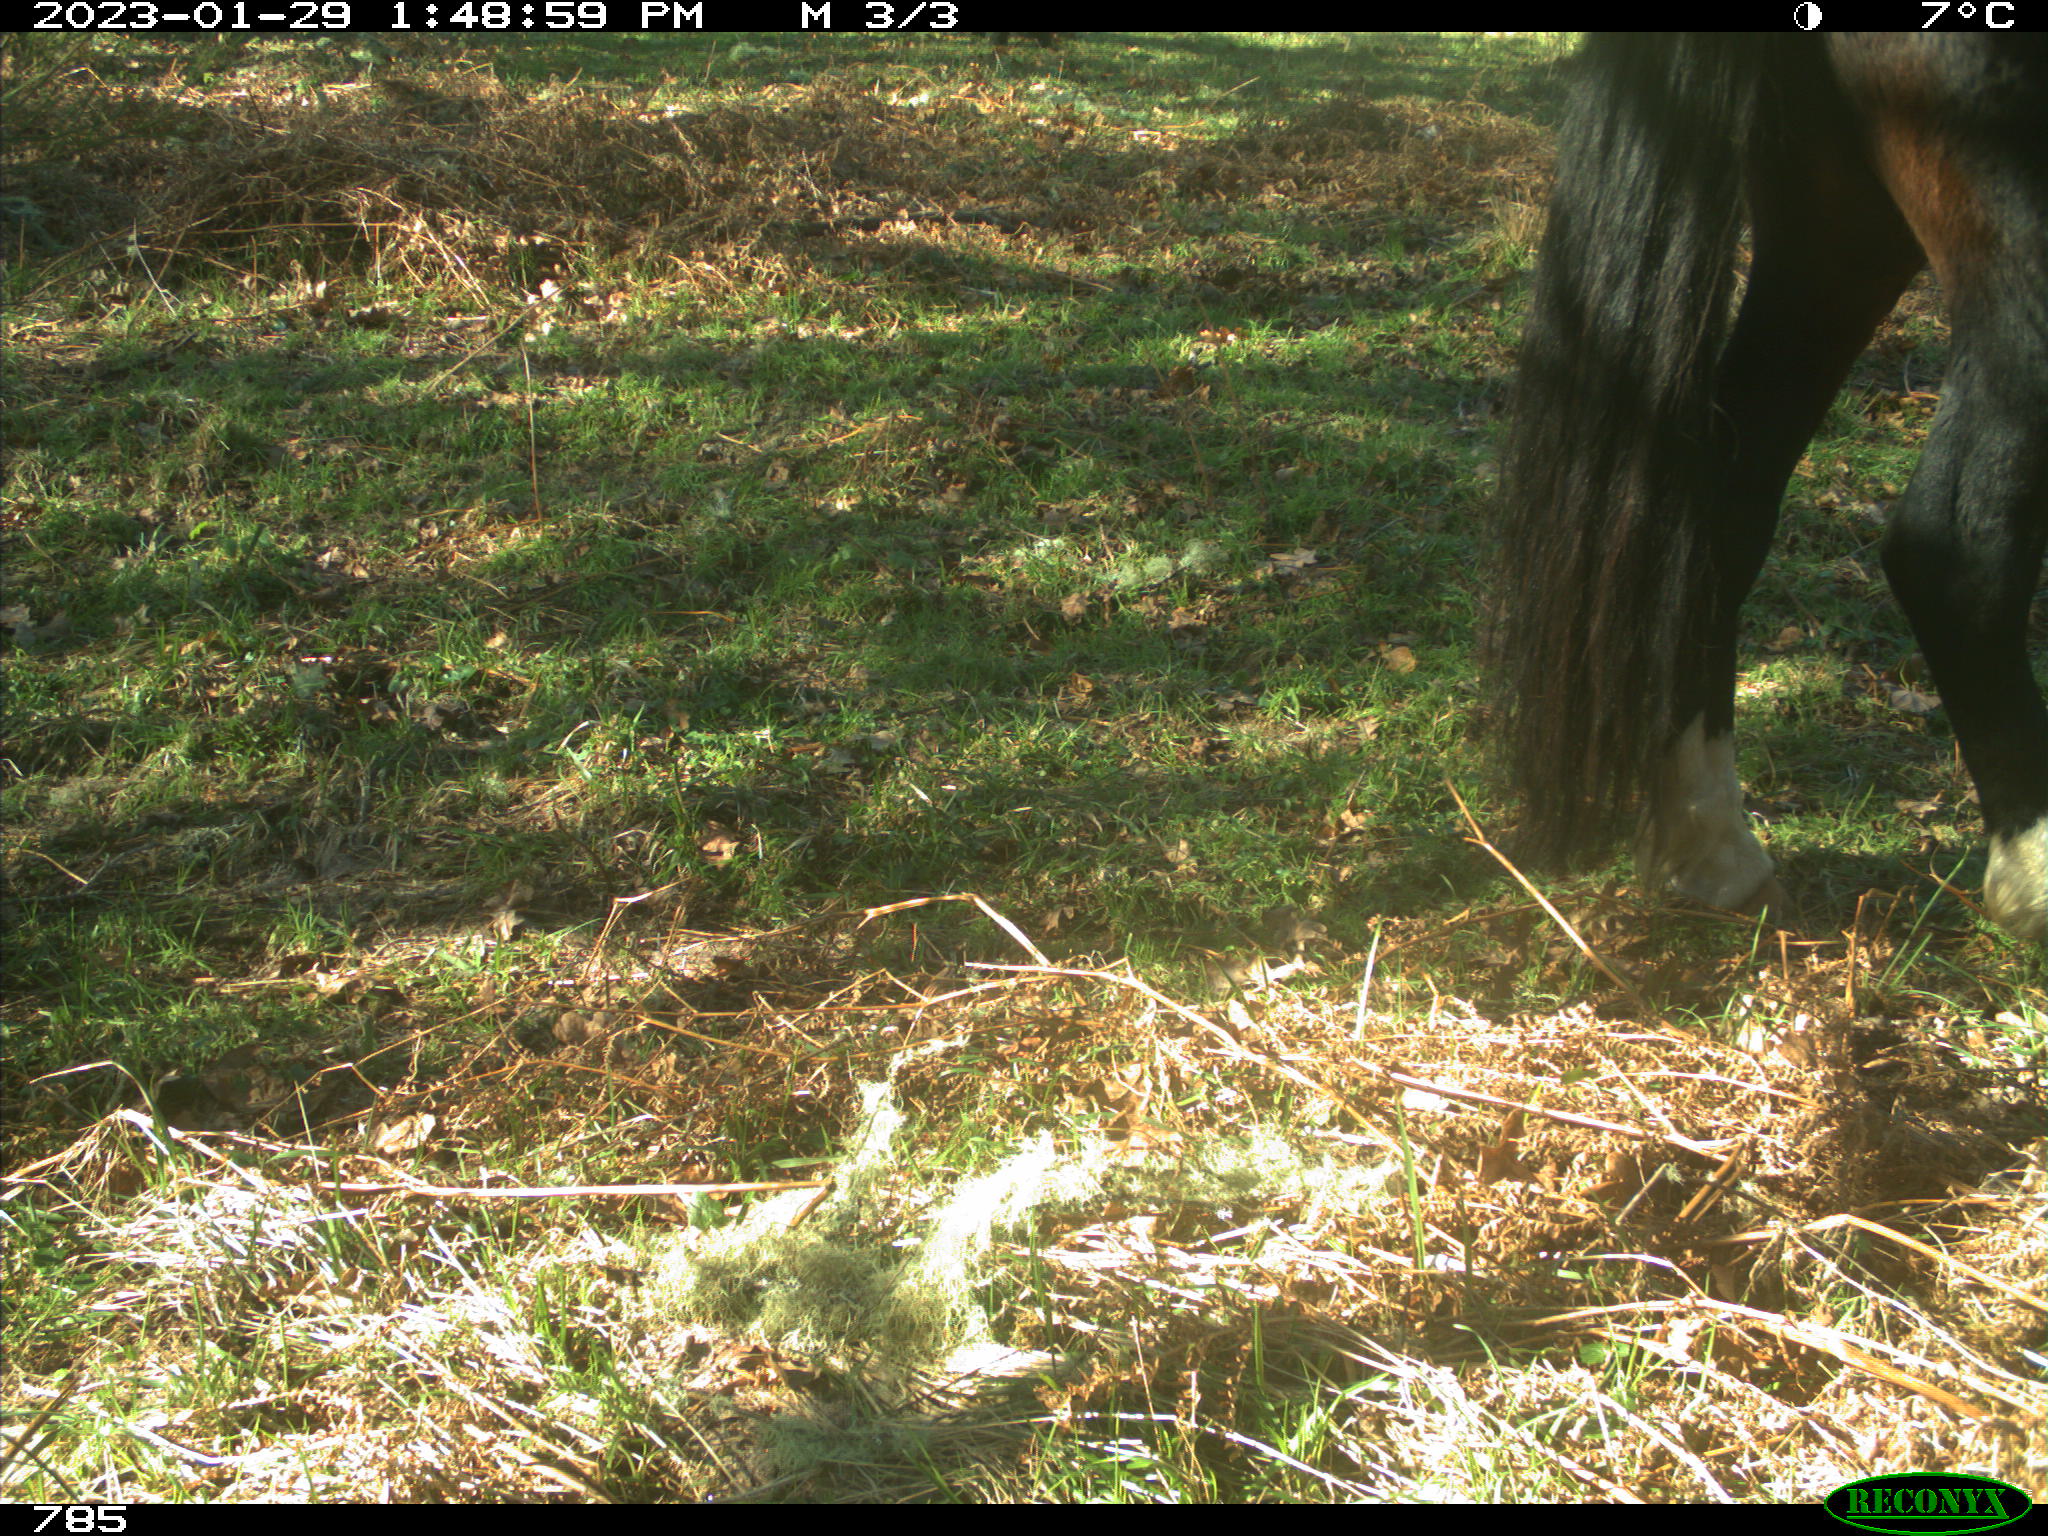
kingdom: Animalia
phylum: Chordata
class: Mammalia
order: Perissodactyla
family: Equidae
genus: Equus
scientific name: Equus caballus
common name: Horse
